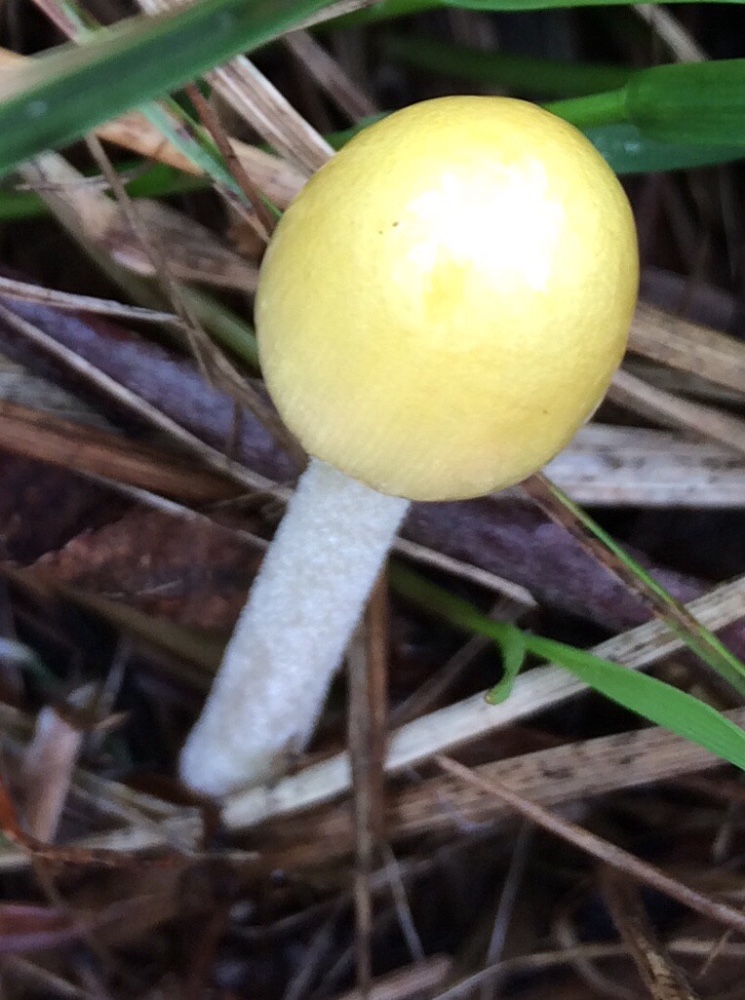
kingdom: Fungi
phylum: Basidiomycota
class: Agaricomycetes
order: Agaricales
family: Bolbitiaceae
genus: Bolbitius
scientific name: Bolbitius titubans
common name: almindelig gulhat
